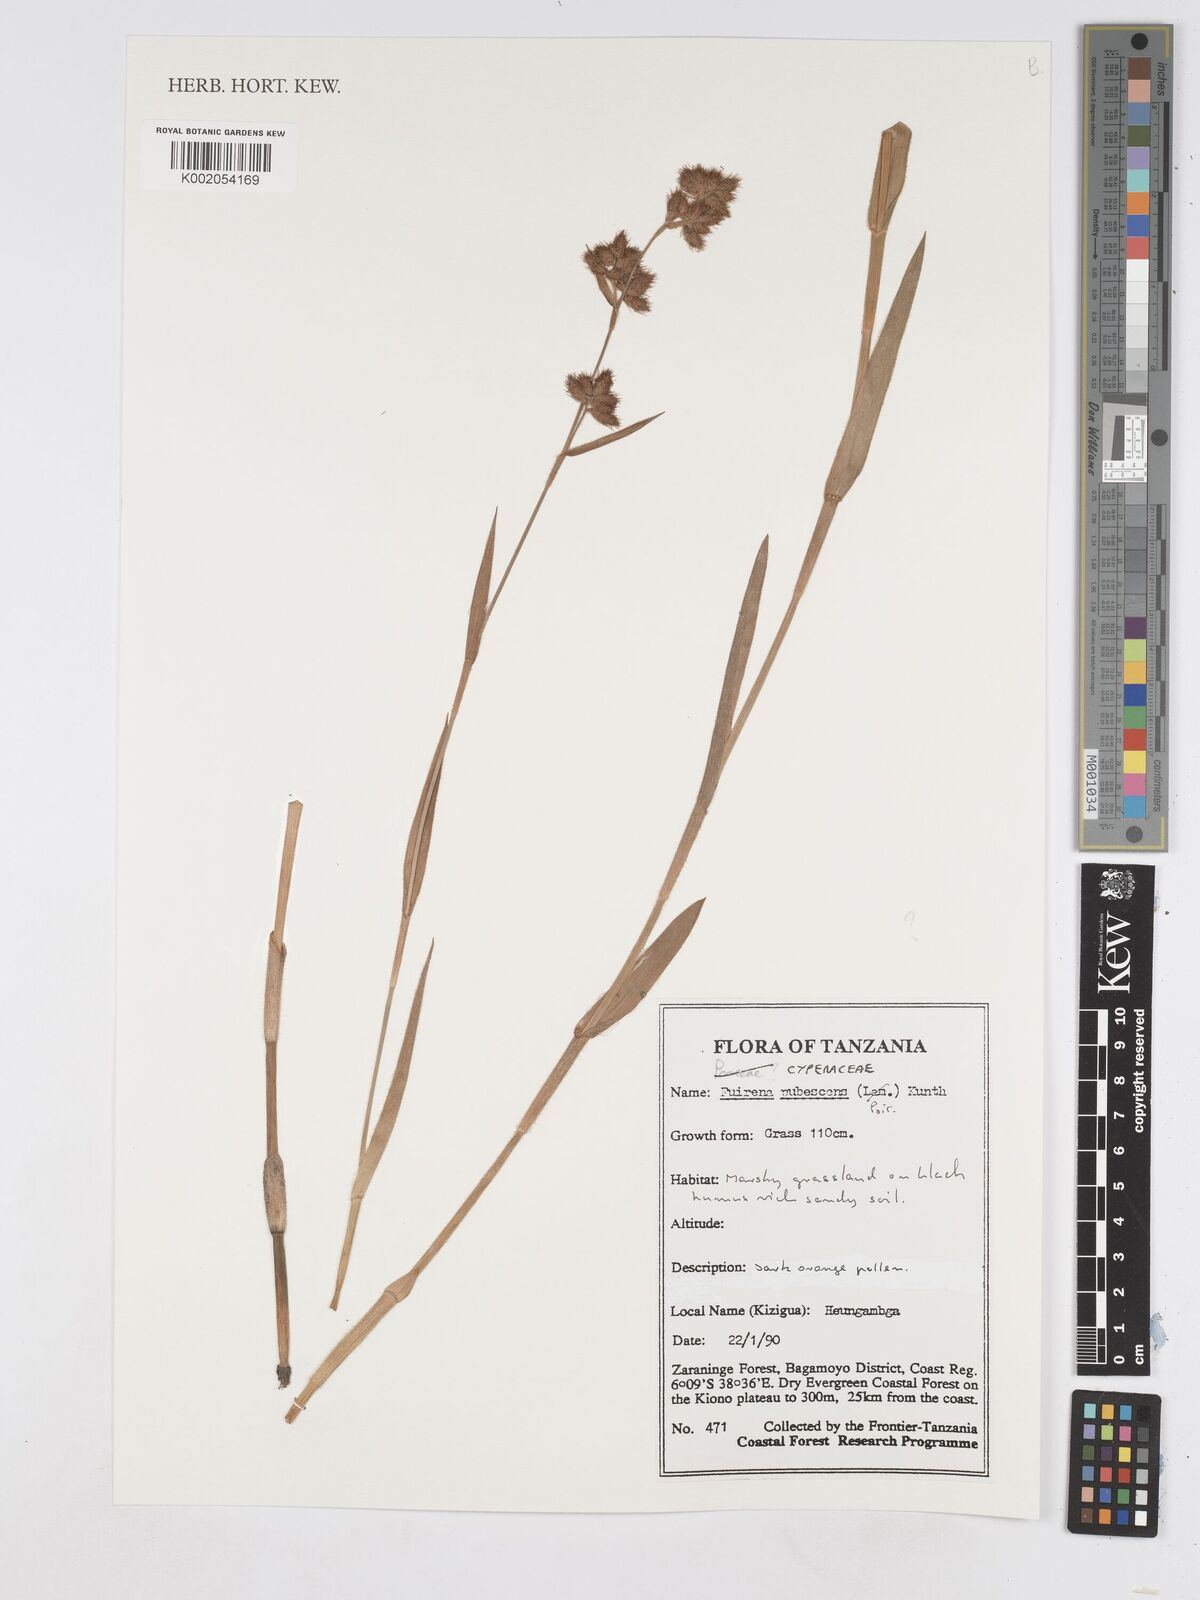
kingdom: Plantae
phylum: Tracheophyta
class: Liliopsida
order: Poales
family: Cyperaceae
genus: Fuirena
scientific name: Fuirena pachyrrhiza
